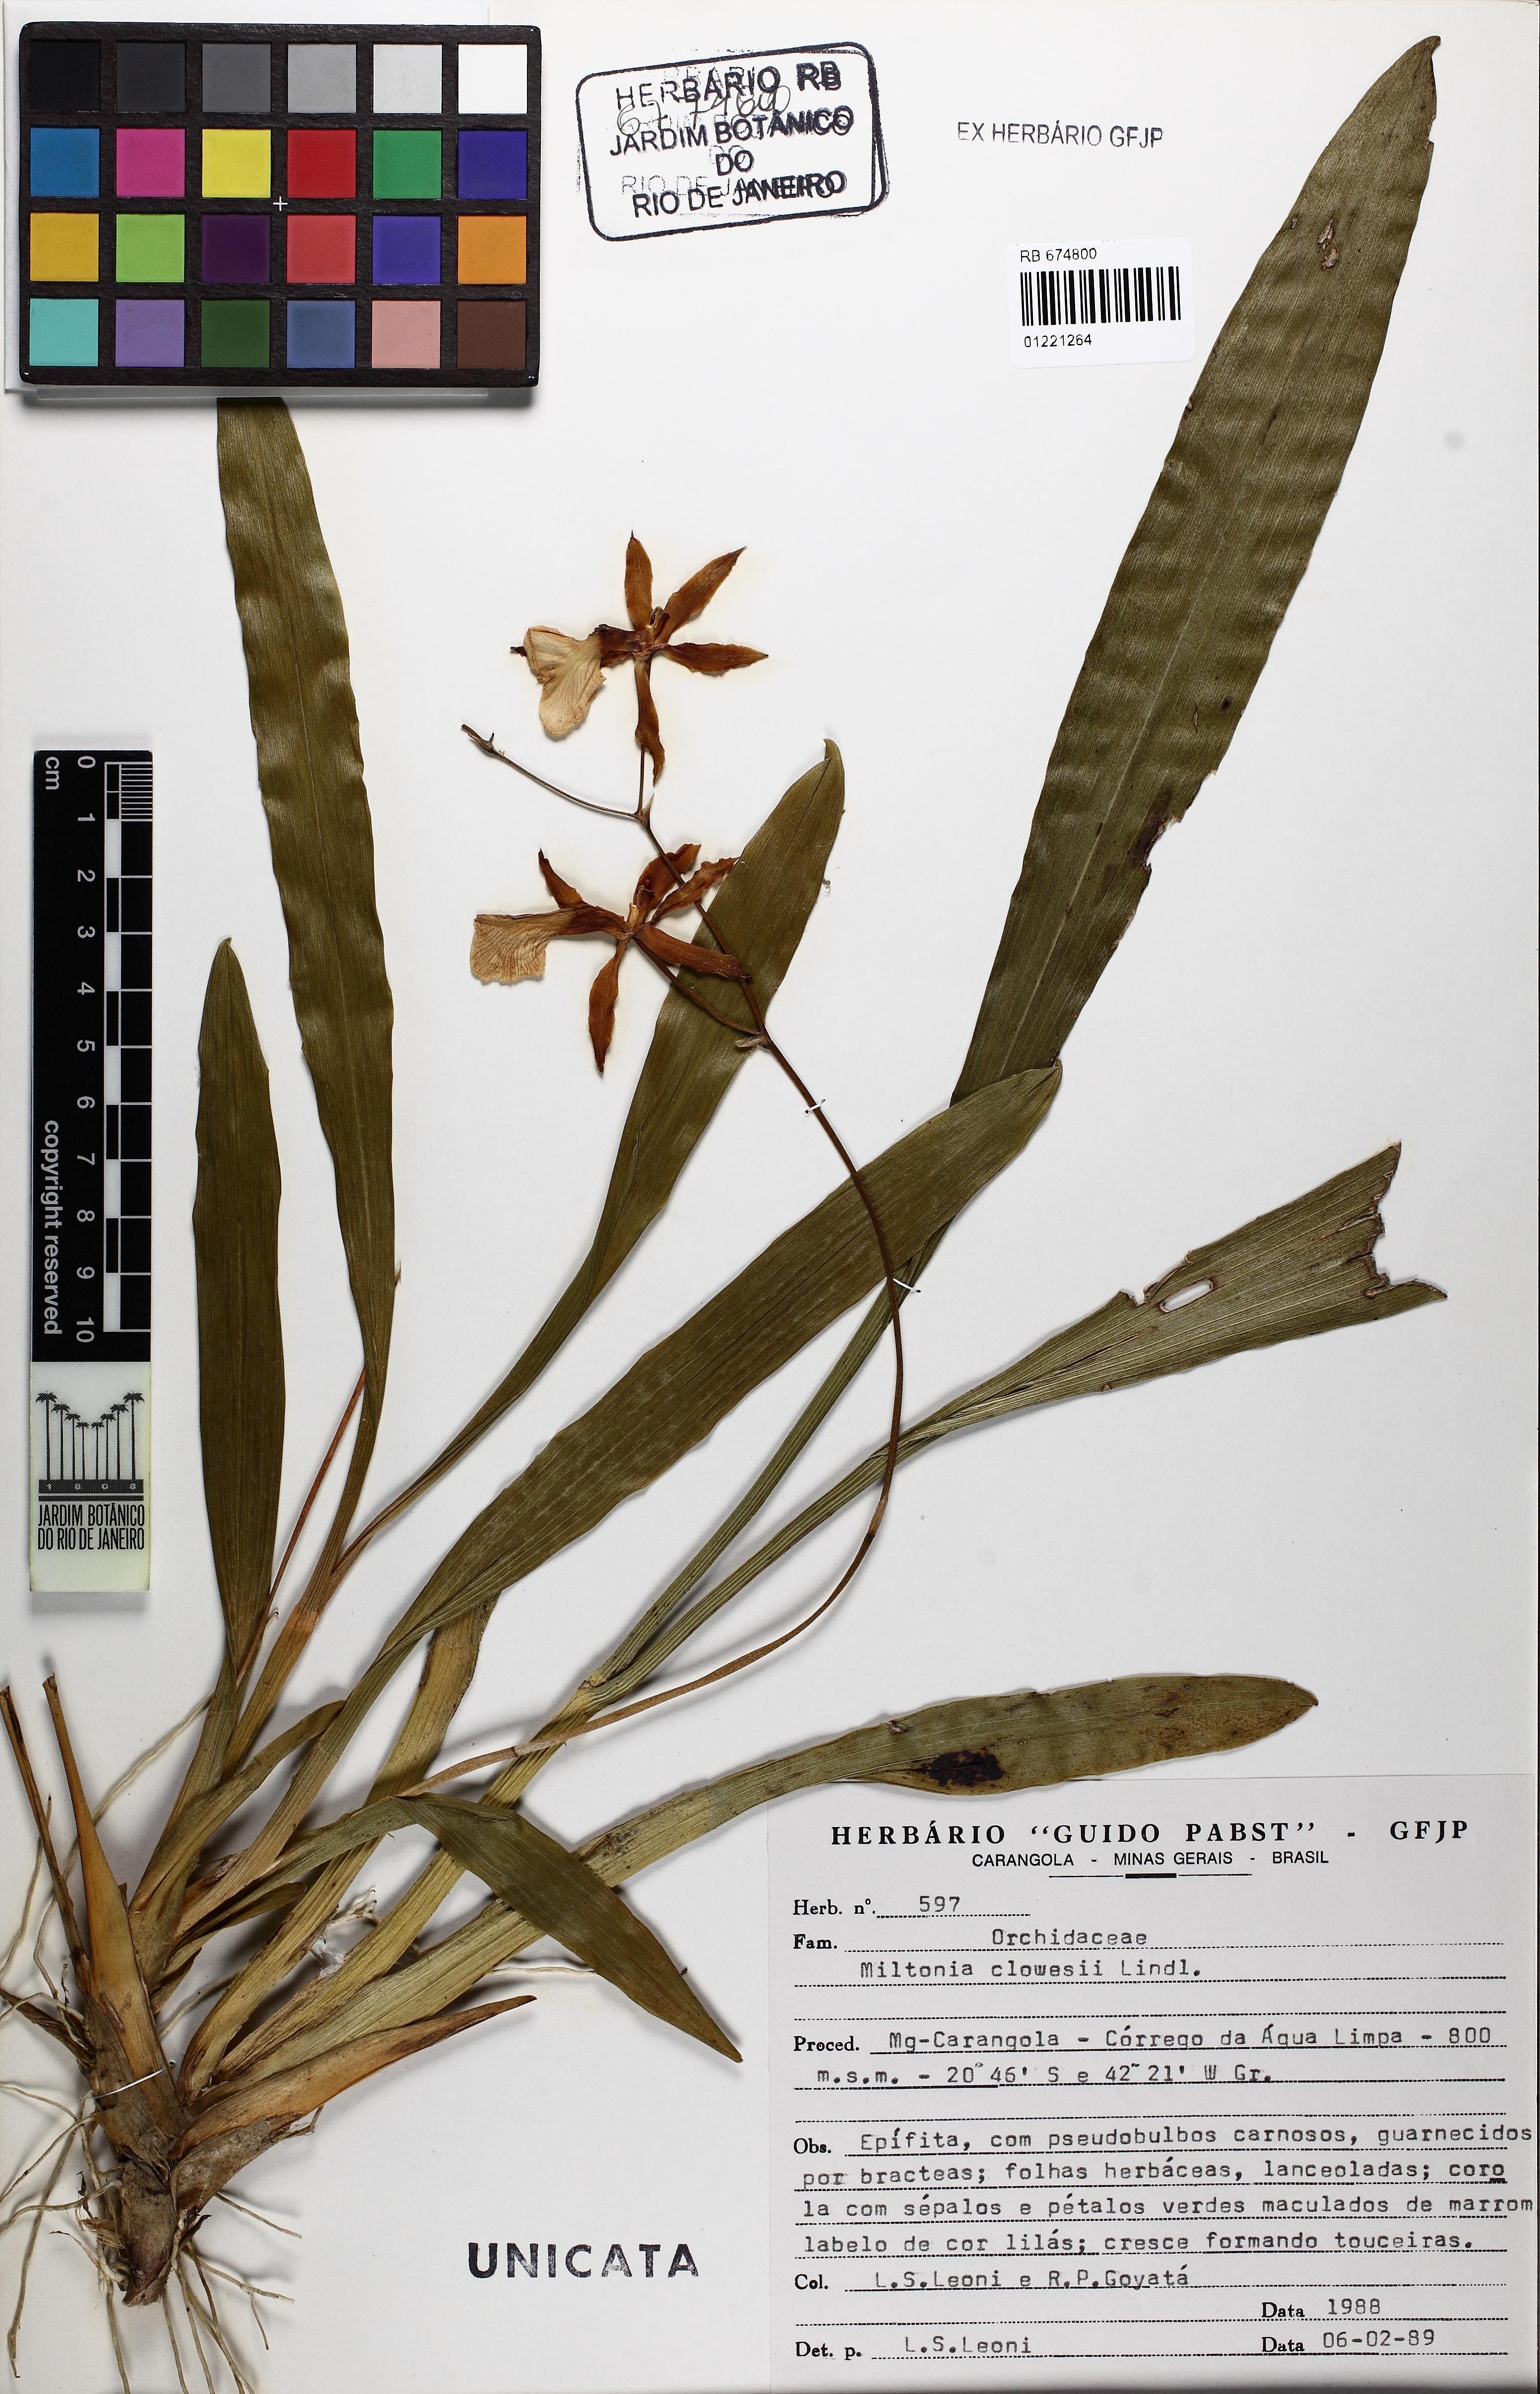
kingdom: Plantae
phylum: Tracheophyta
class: Liliopsida
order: Asparagales
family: Orchidaceae
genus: Miltonia
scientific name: Miltonia clowesii
